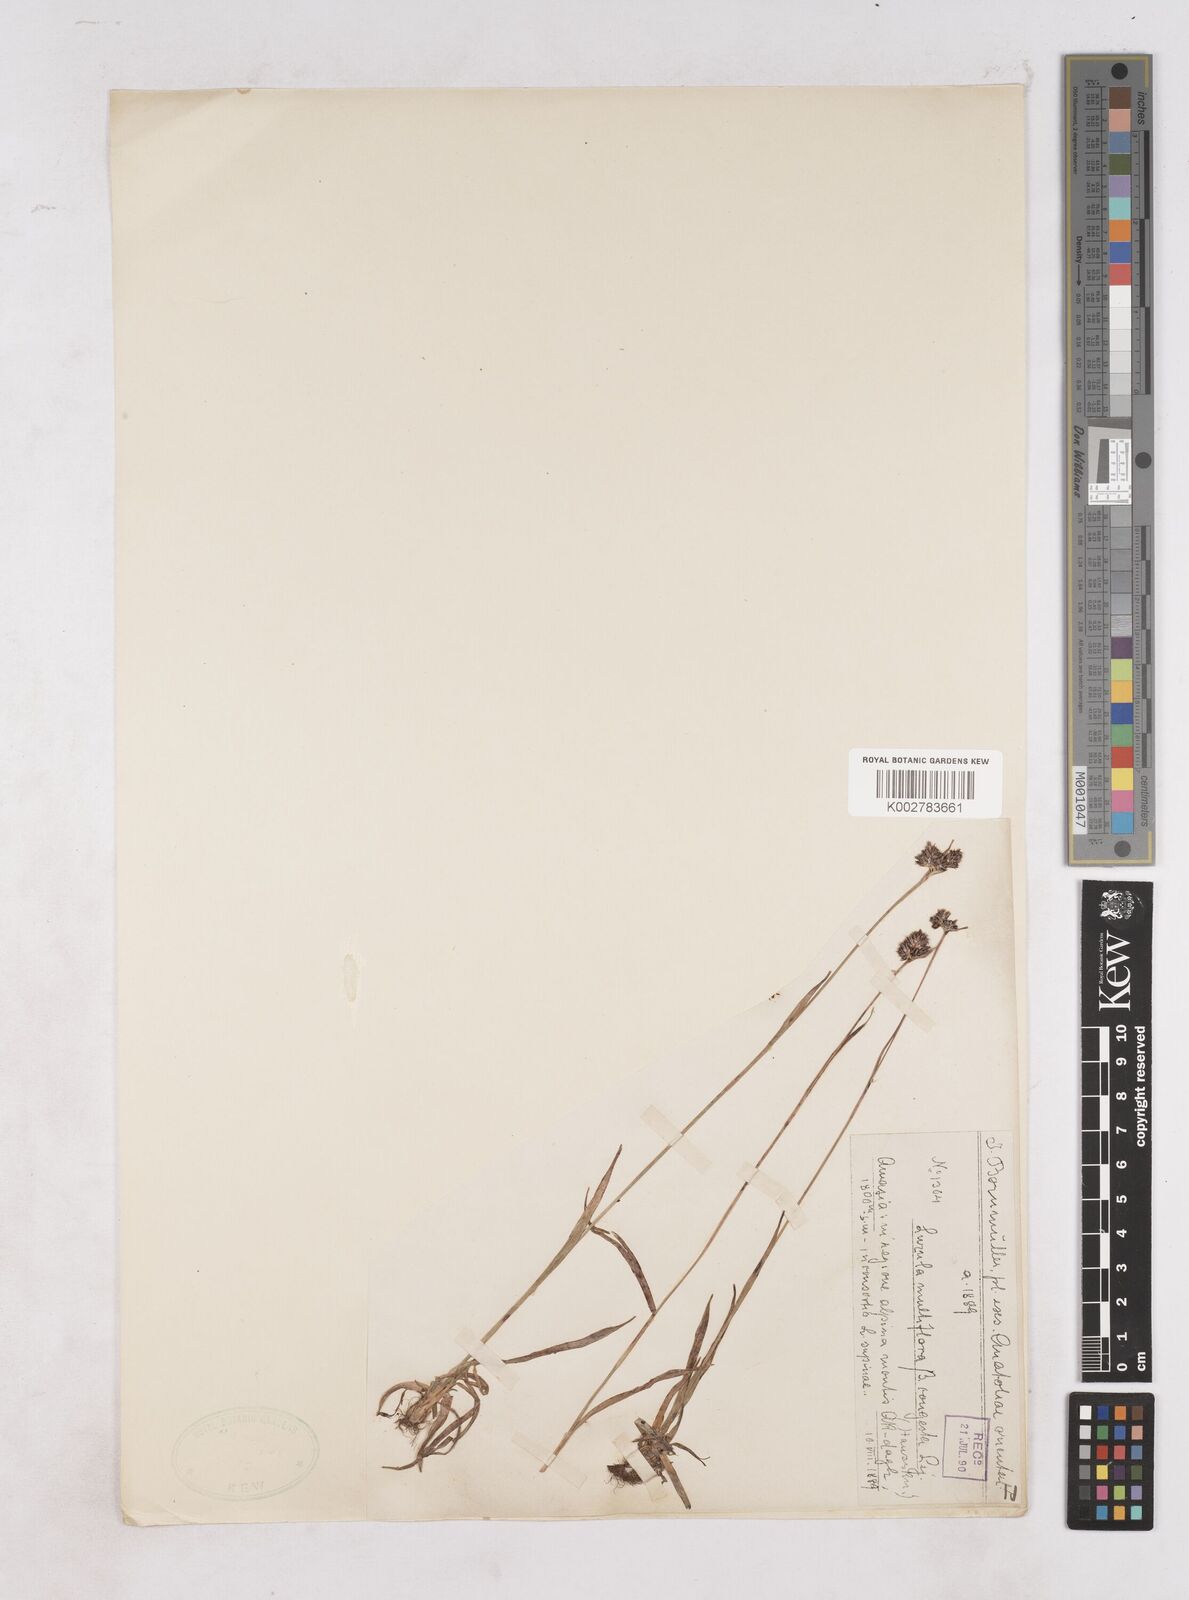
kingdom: Plantae
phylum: Tracheophyta
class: Liliopsida
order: Poales
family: Juncaceae
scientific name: Juncaceae
